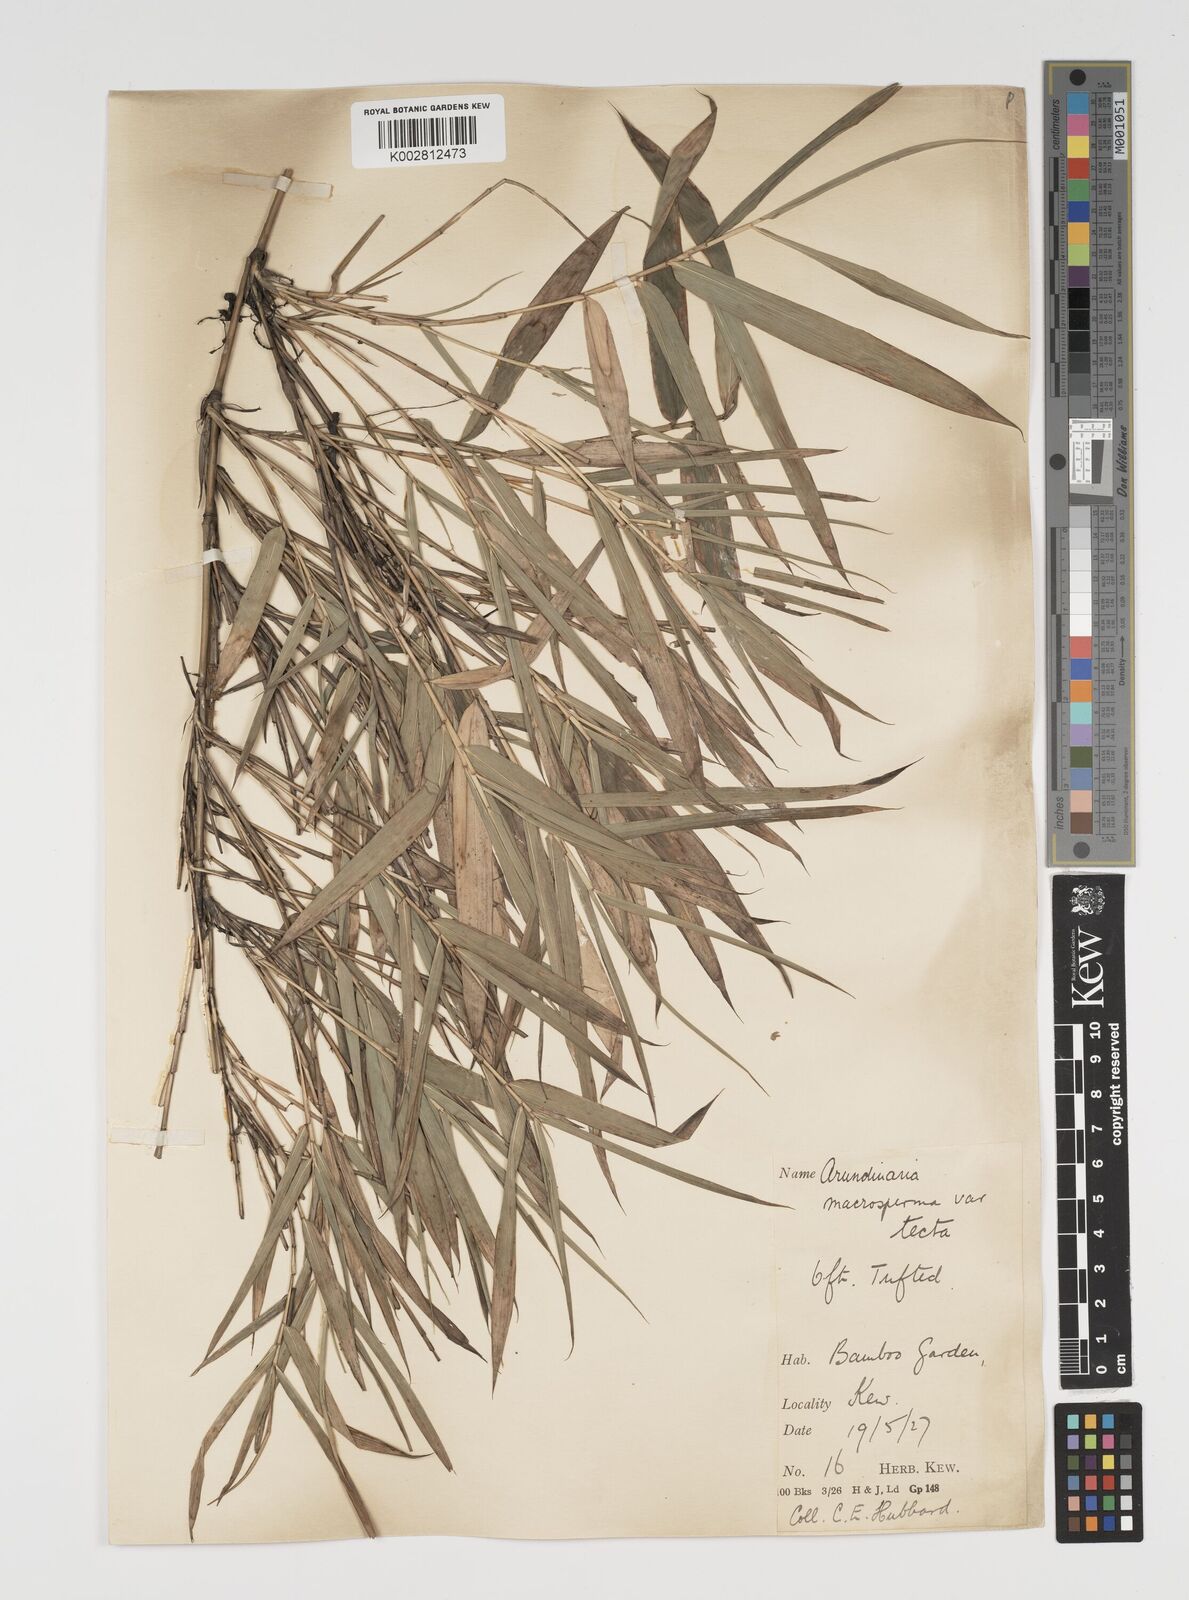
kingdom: Plantae
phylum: Tracheophyta
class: Liliopsida
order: Poales
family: Poaceae
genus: Arundinaria
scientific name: Arundinaria tecta
